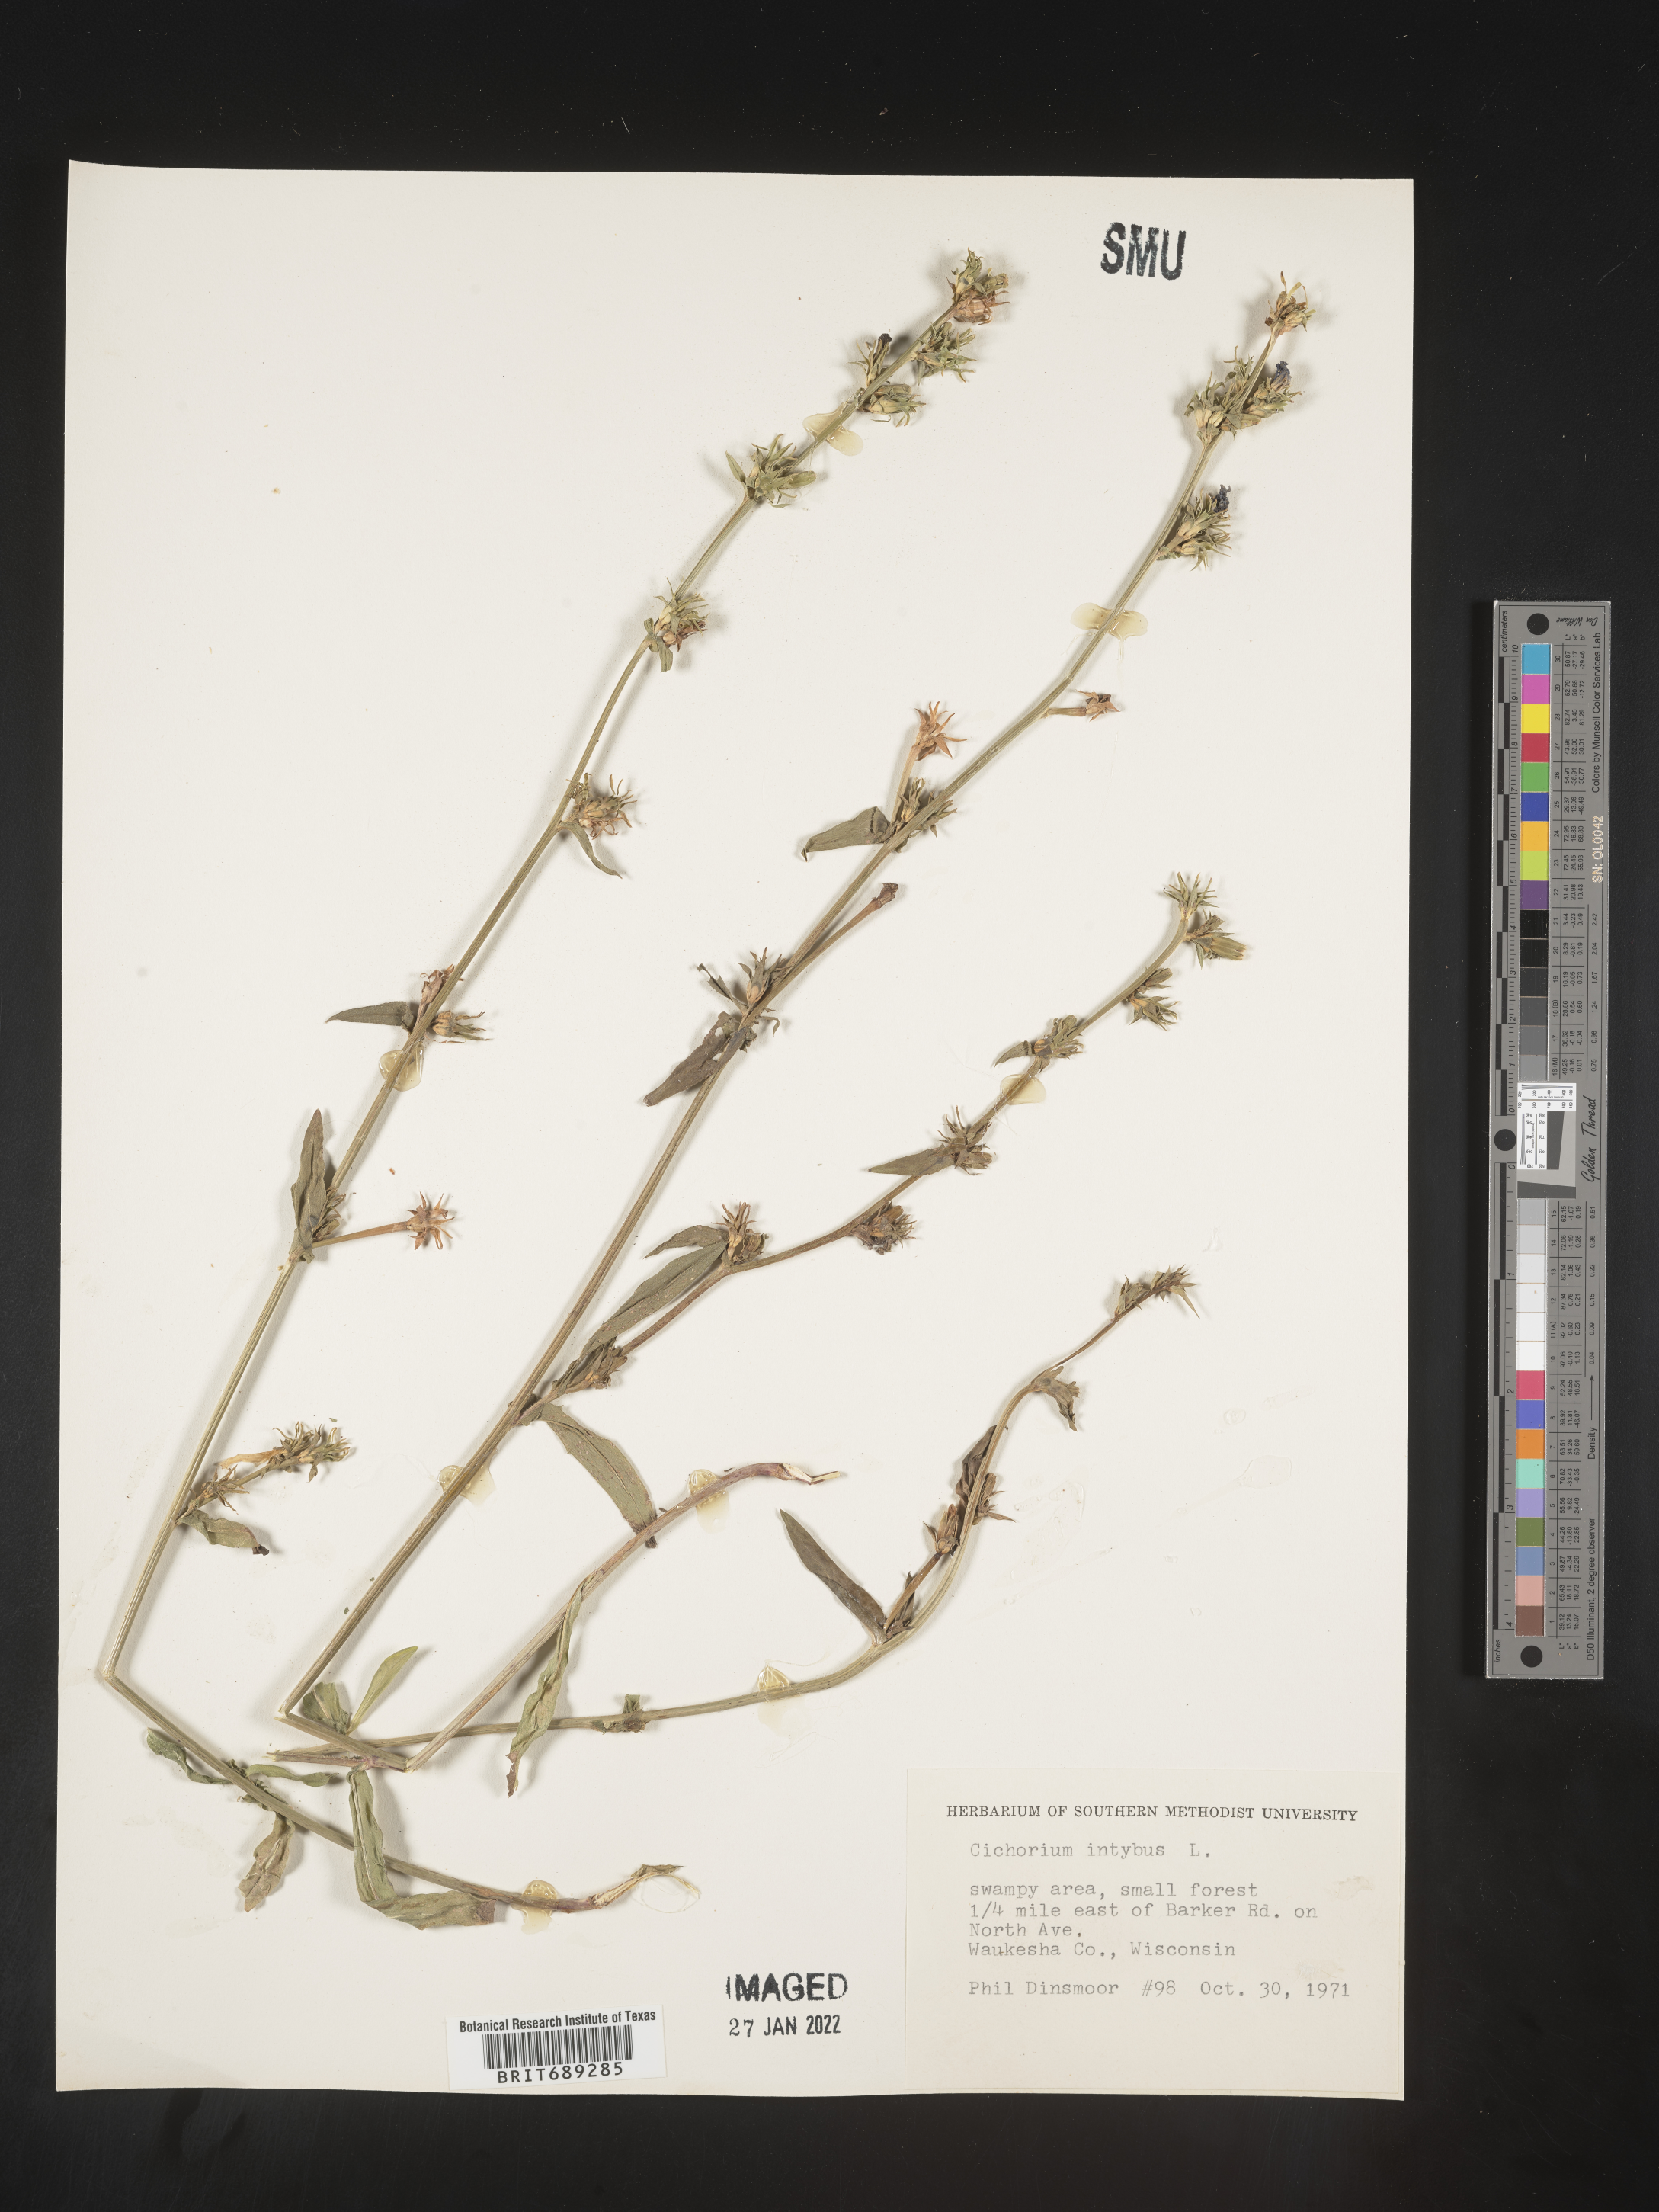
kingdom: Plantae
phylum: Tracheophyta
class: Magnoliopsida
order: Asterales
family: Asteraceae
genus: Cichorium
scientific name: Cichorium intybus
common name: Chicory
